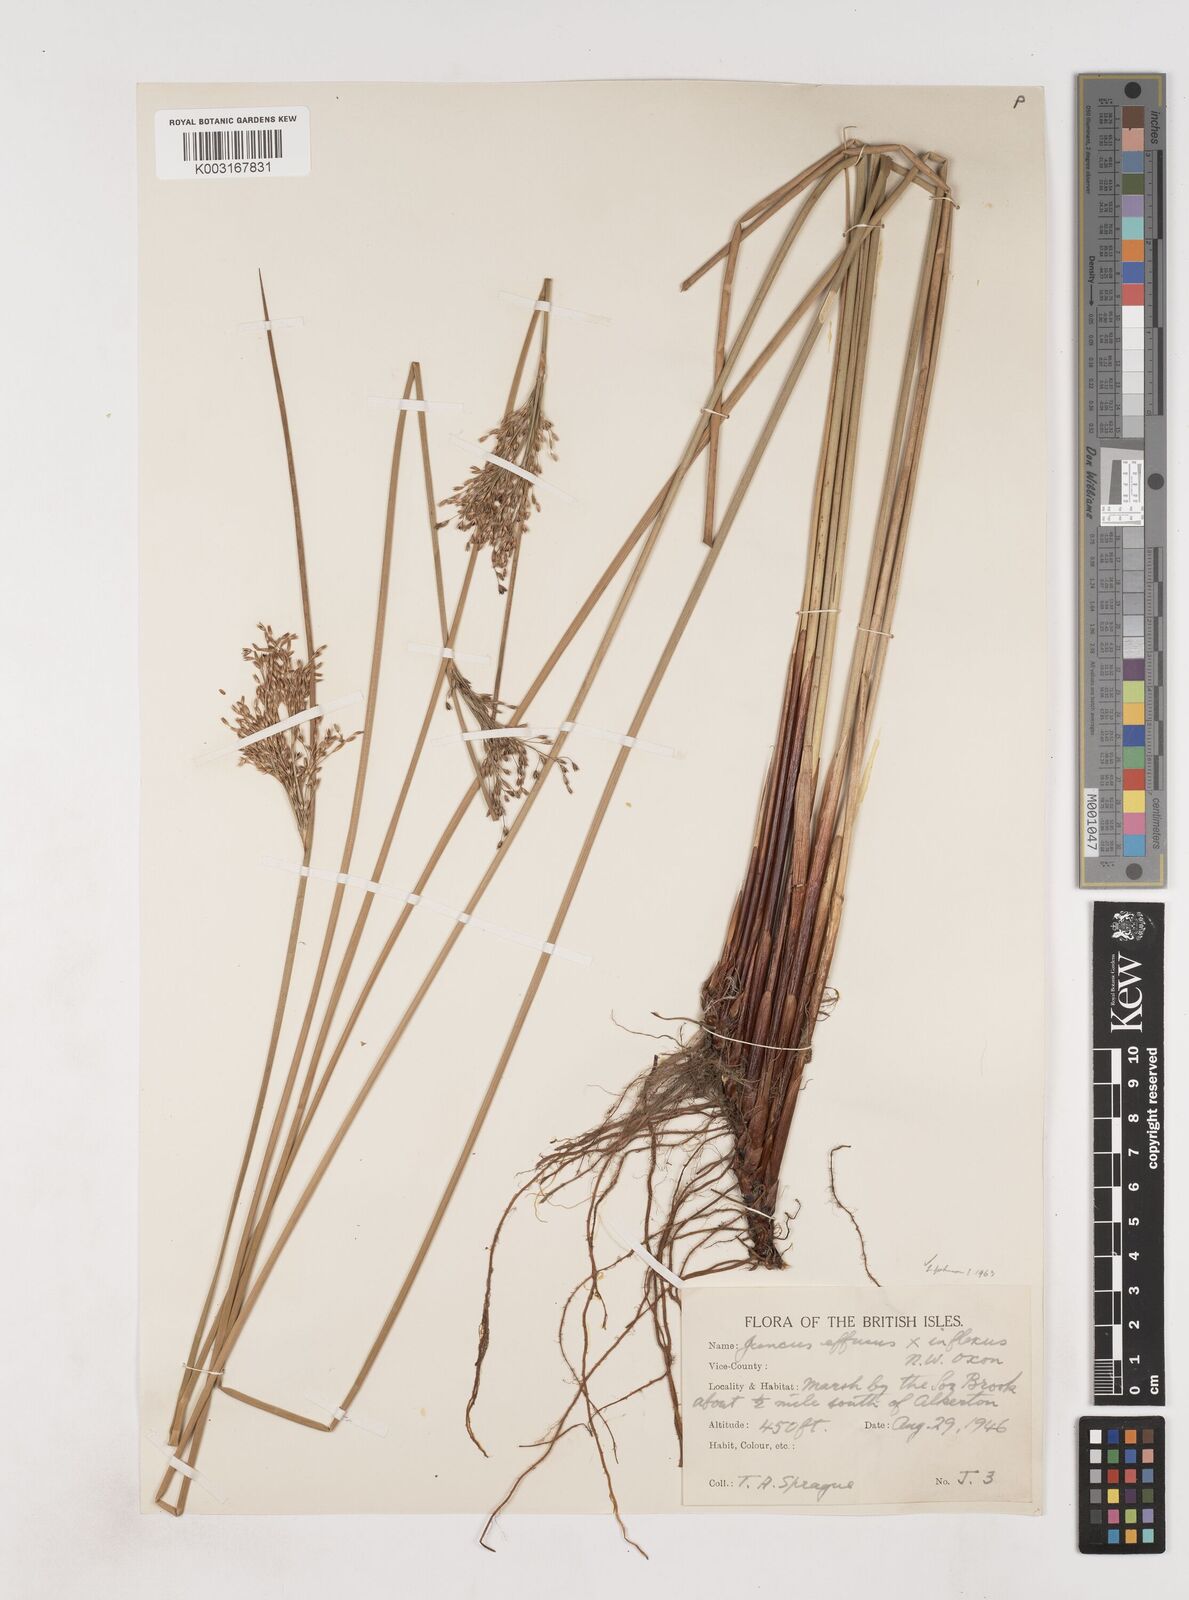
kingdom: Plantae
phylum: Tracheophyta
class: Liliopsida
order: Poales
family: Juncaceae
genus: Juncus
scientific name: Juncus effusus
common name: Soft rush
